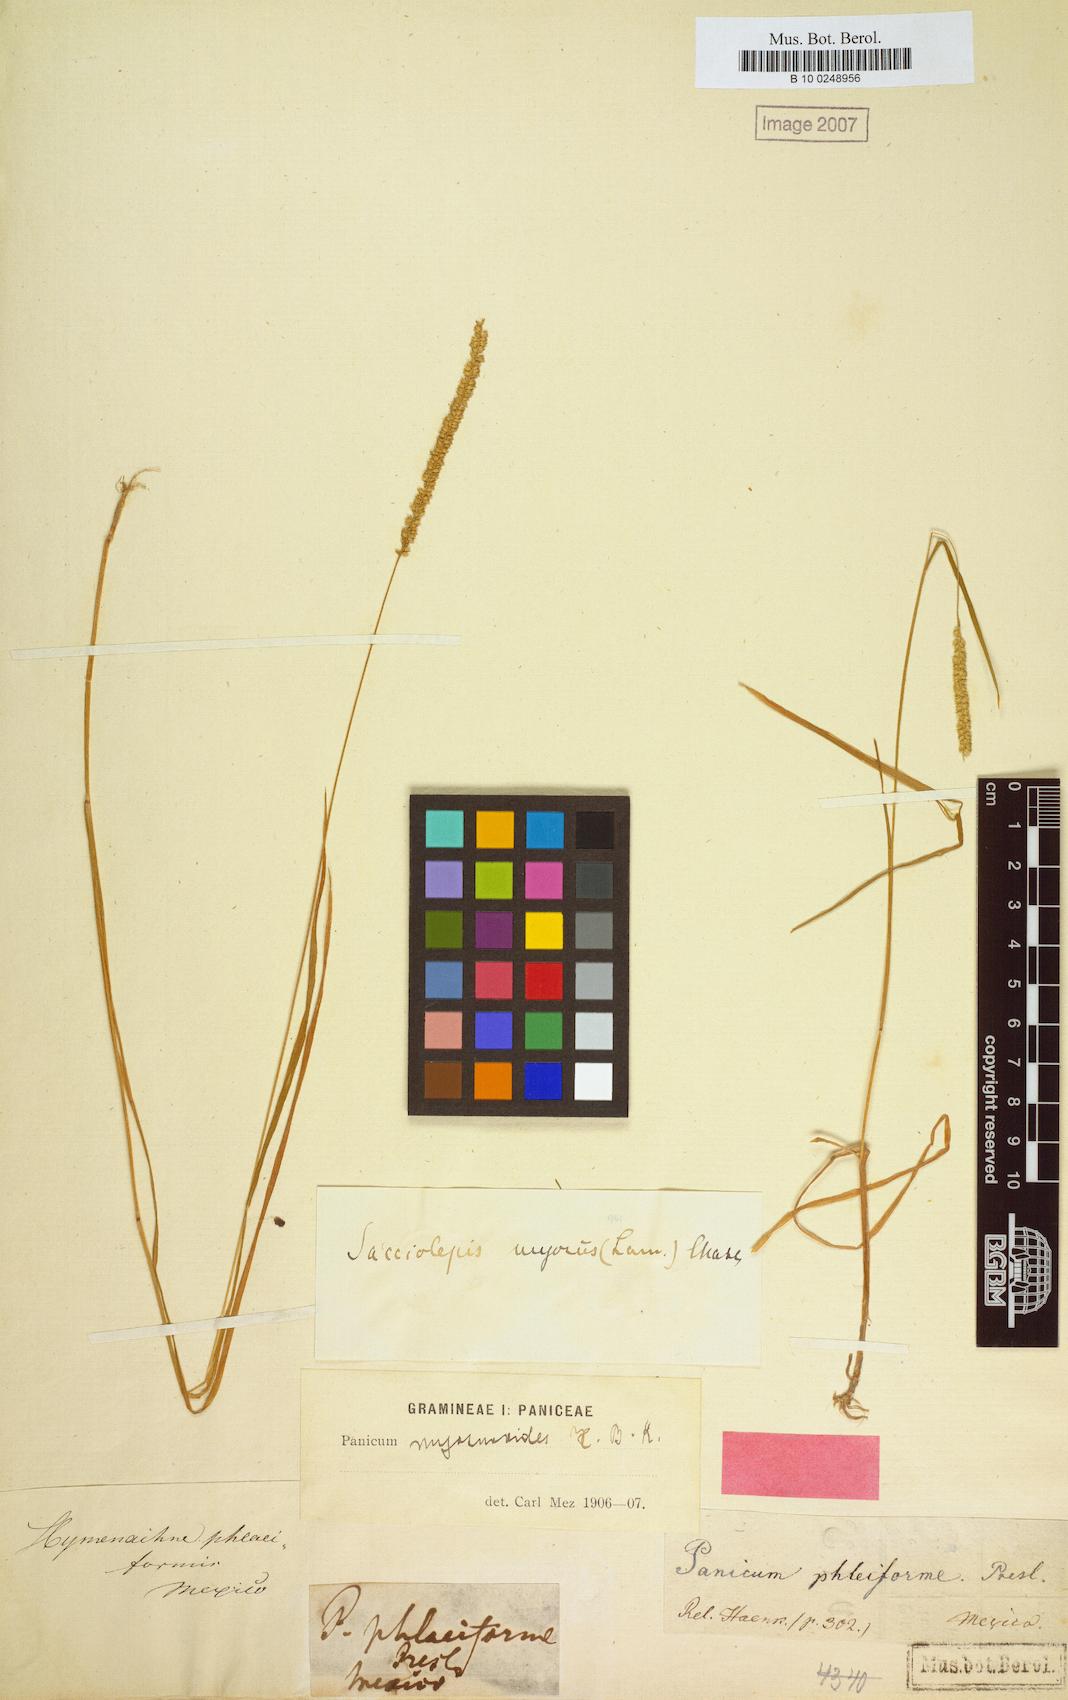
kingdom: Plantae
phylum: Tracheophyta
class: Liliopsida
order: Poales
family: Poaceae
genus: Sacciolepis
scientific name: Sacciolepis myuros
